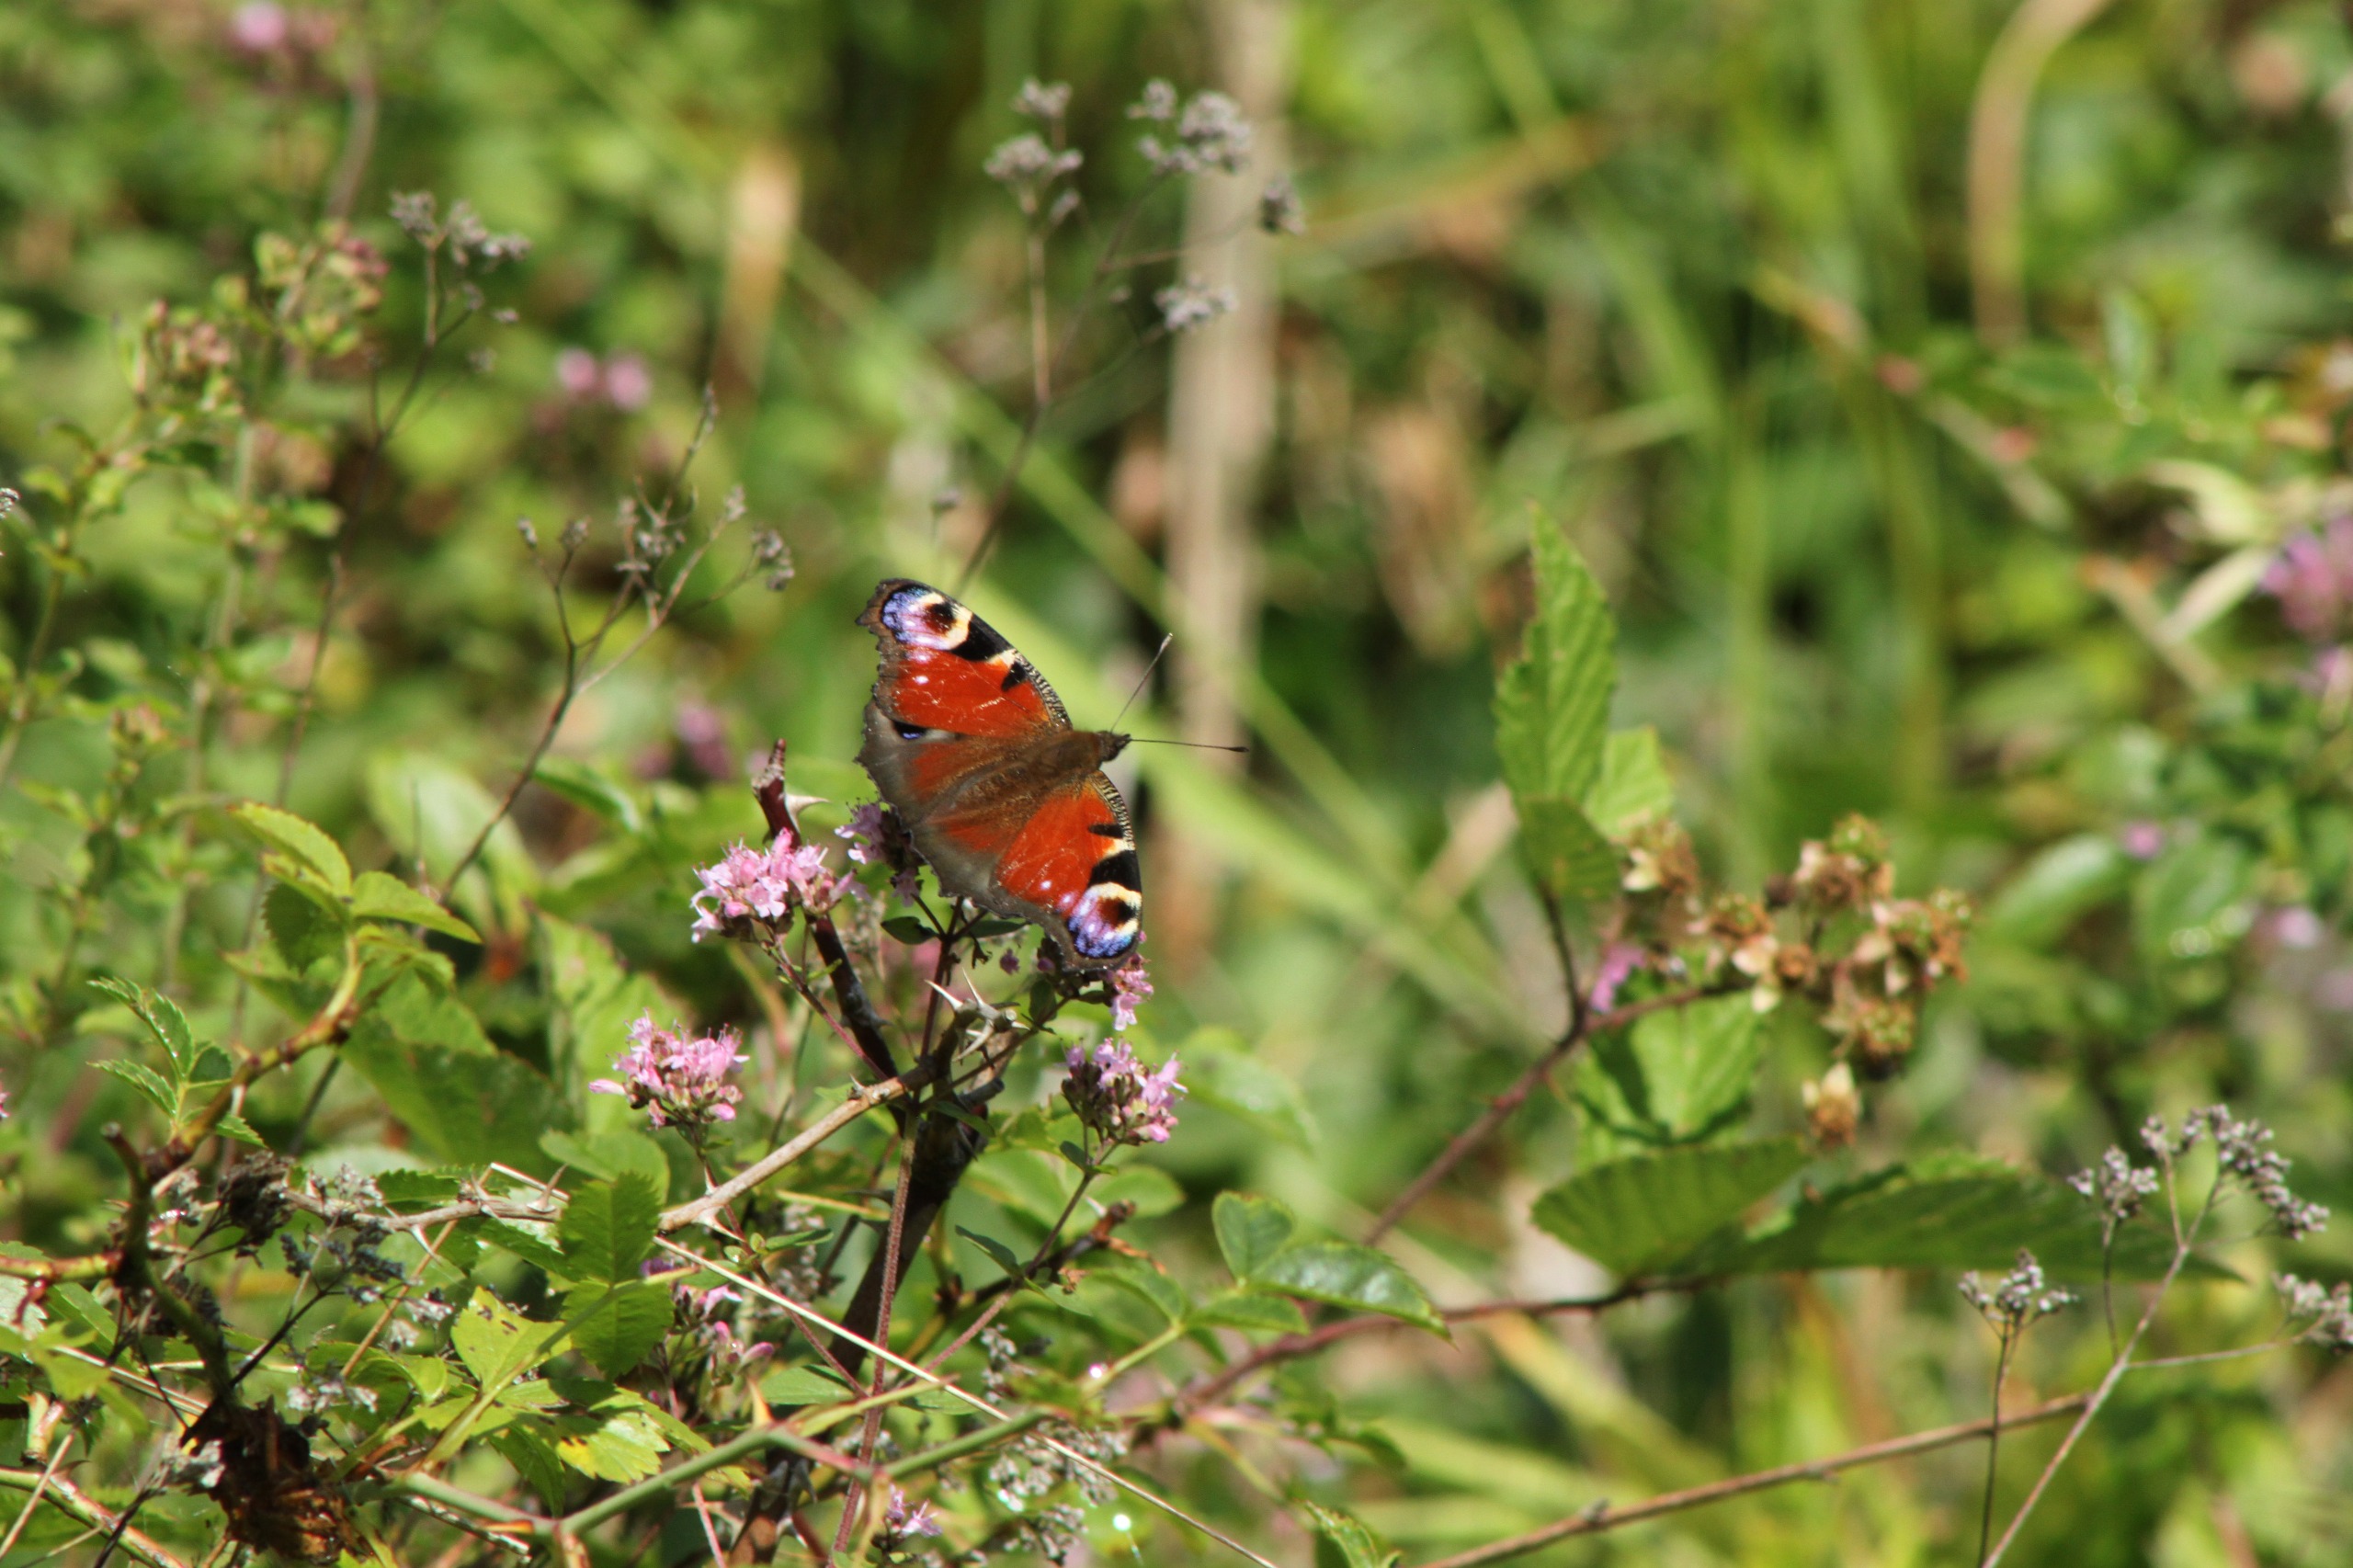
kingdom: Animalia
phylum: Arthropoda
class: Insecta
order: Lepidoptera
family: Nymphalidae
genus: Aglais
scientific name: Aglais io
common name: Dagpåfugleøje
